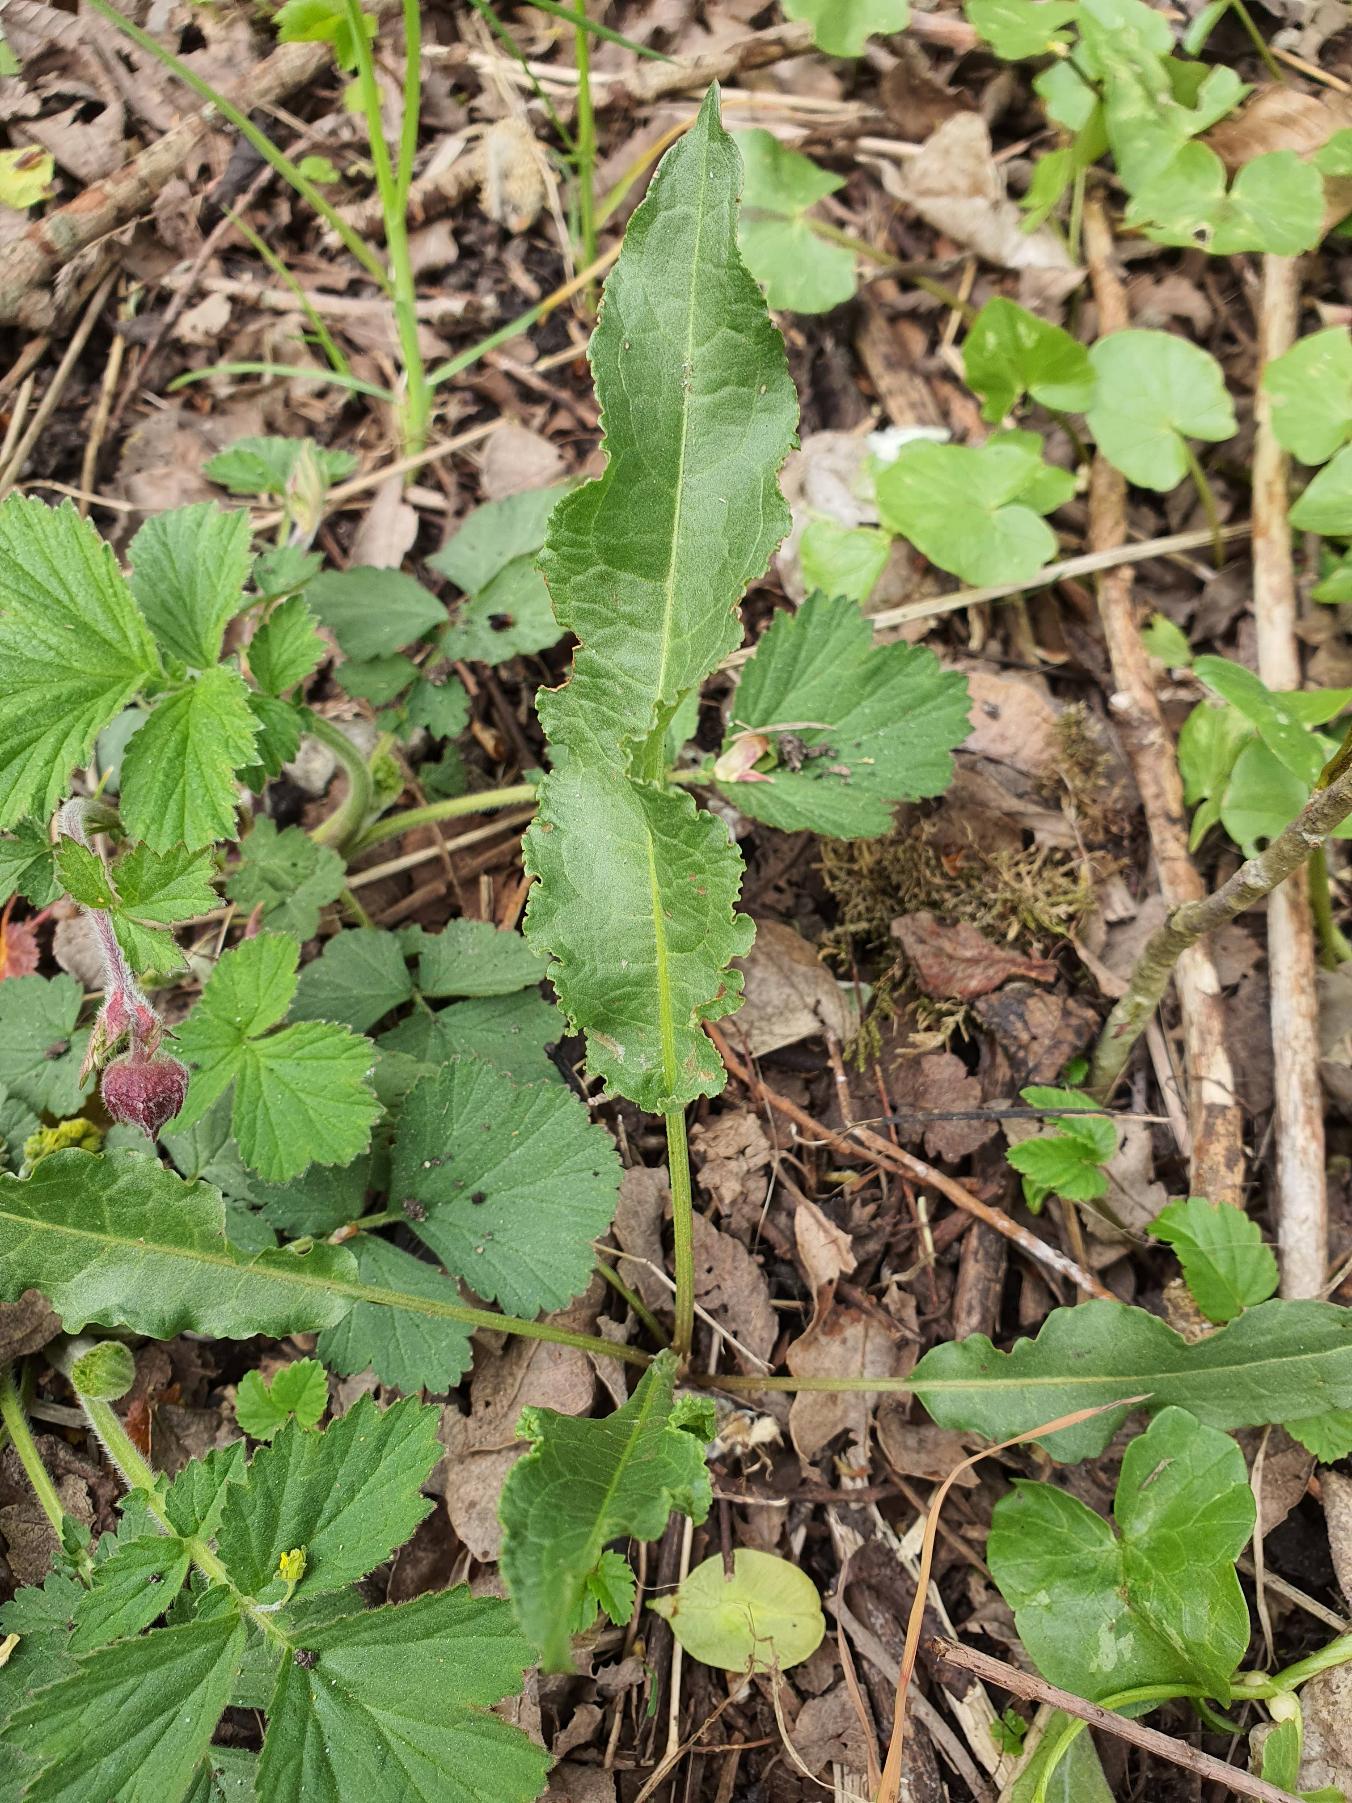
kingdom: Plantae
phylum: Tracheophyta
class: Magnoliopsida
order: Caryophyllales
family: Polygonaceae
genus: Rumex
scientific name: Rumex crispus
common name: Kruset skræppe
